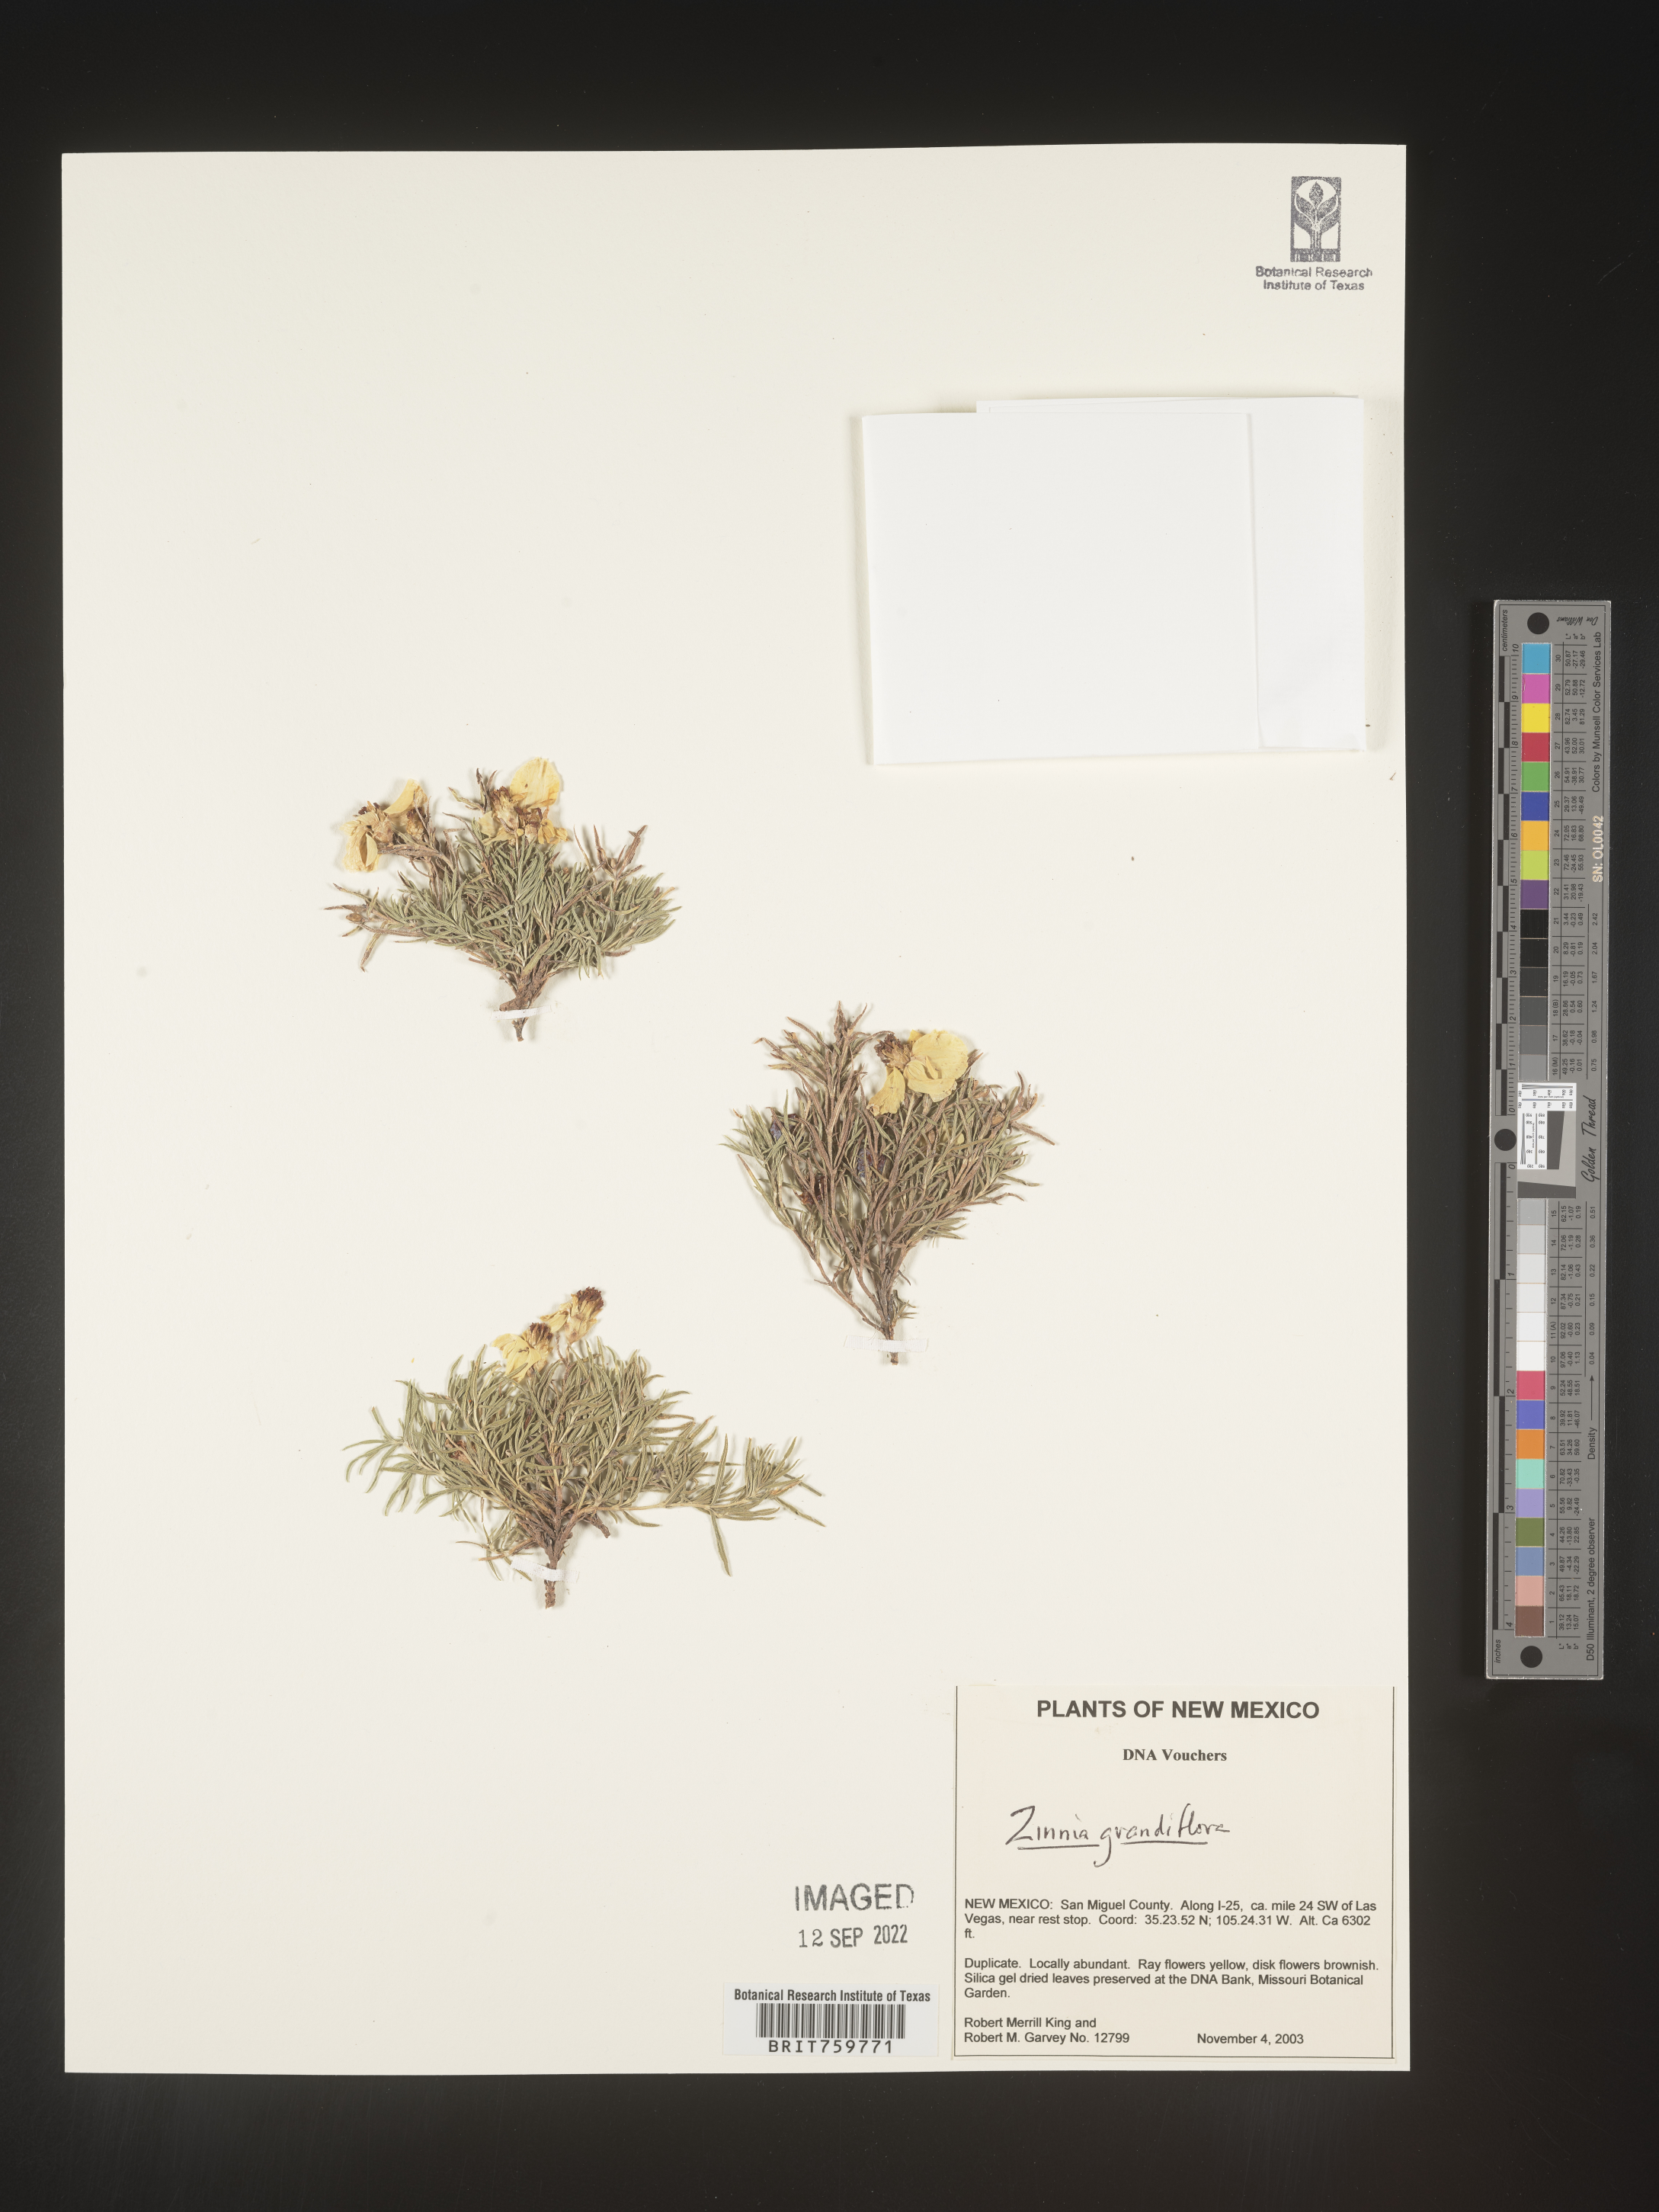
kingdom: Plantae
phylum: Tracheophyta
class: Magnoliopsida
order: Asterales
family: Asteraceae
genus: Zinnia
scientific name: Zinnia grandiflora
